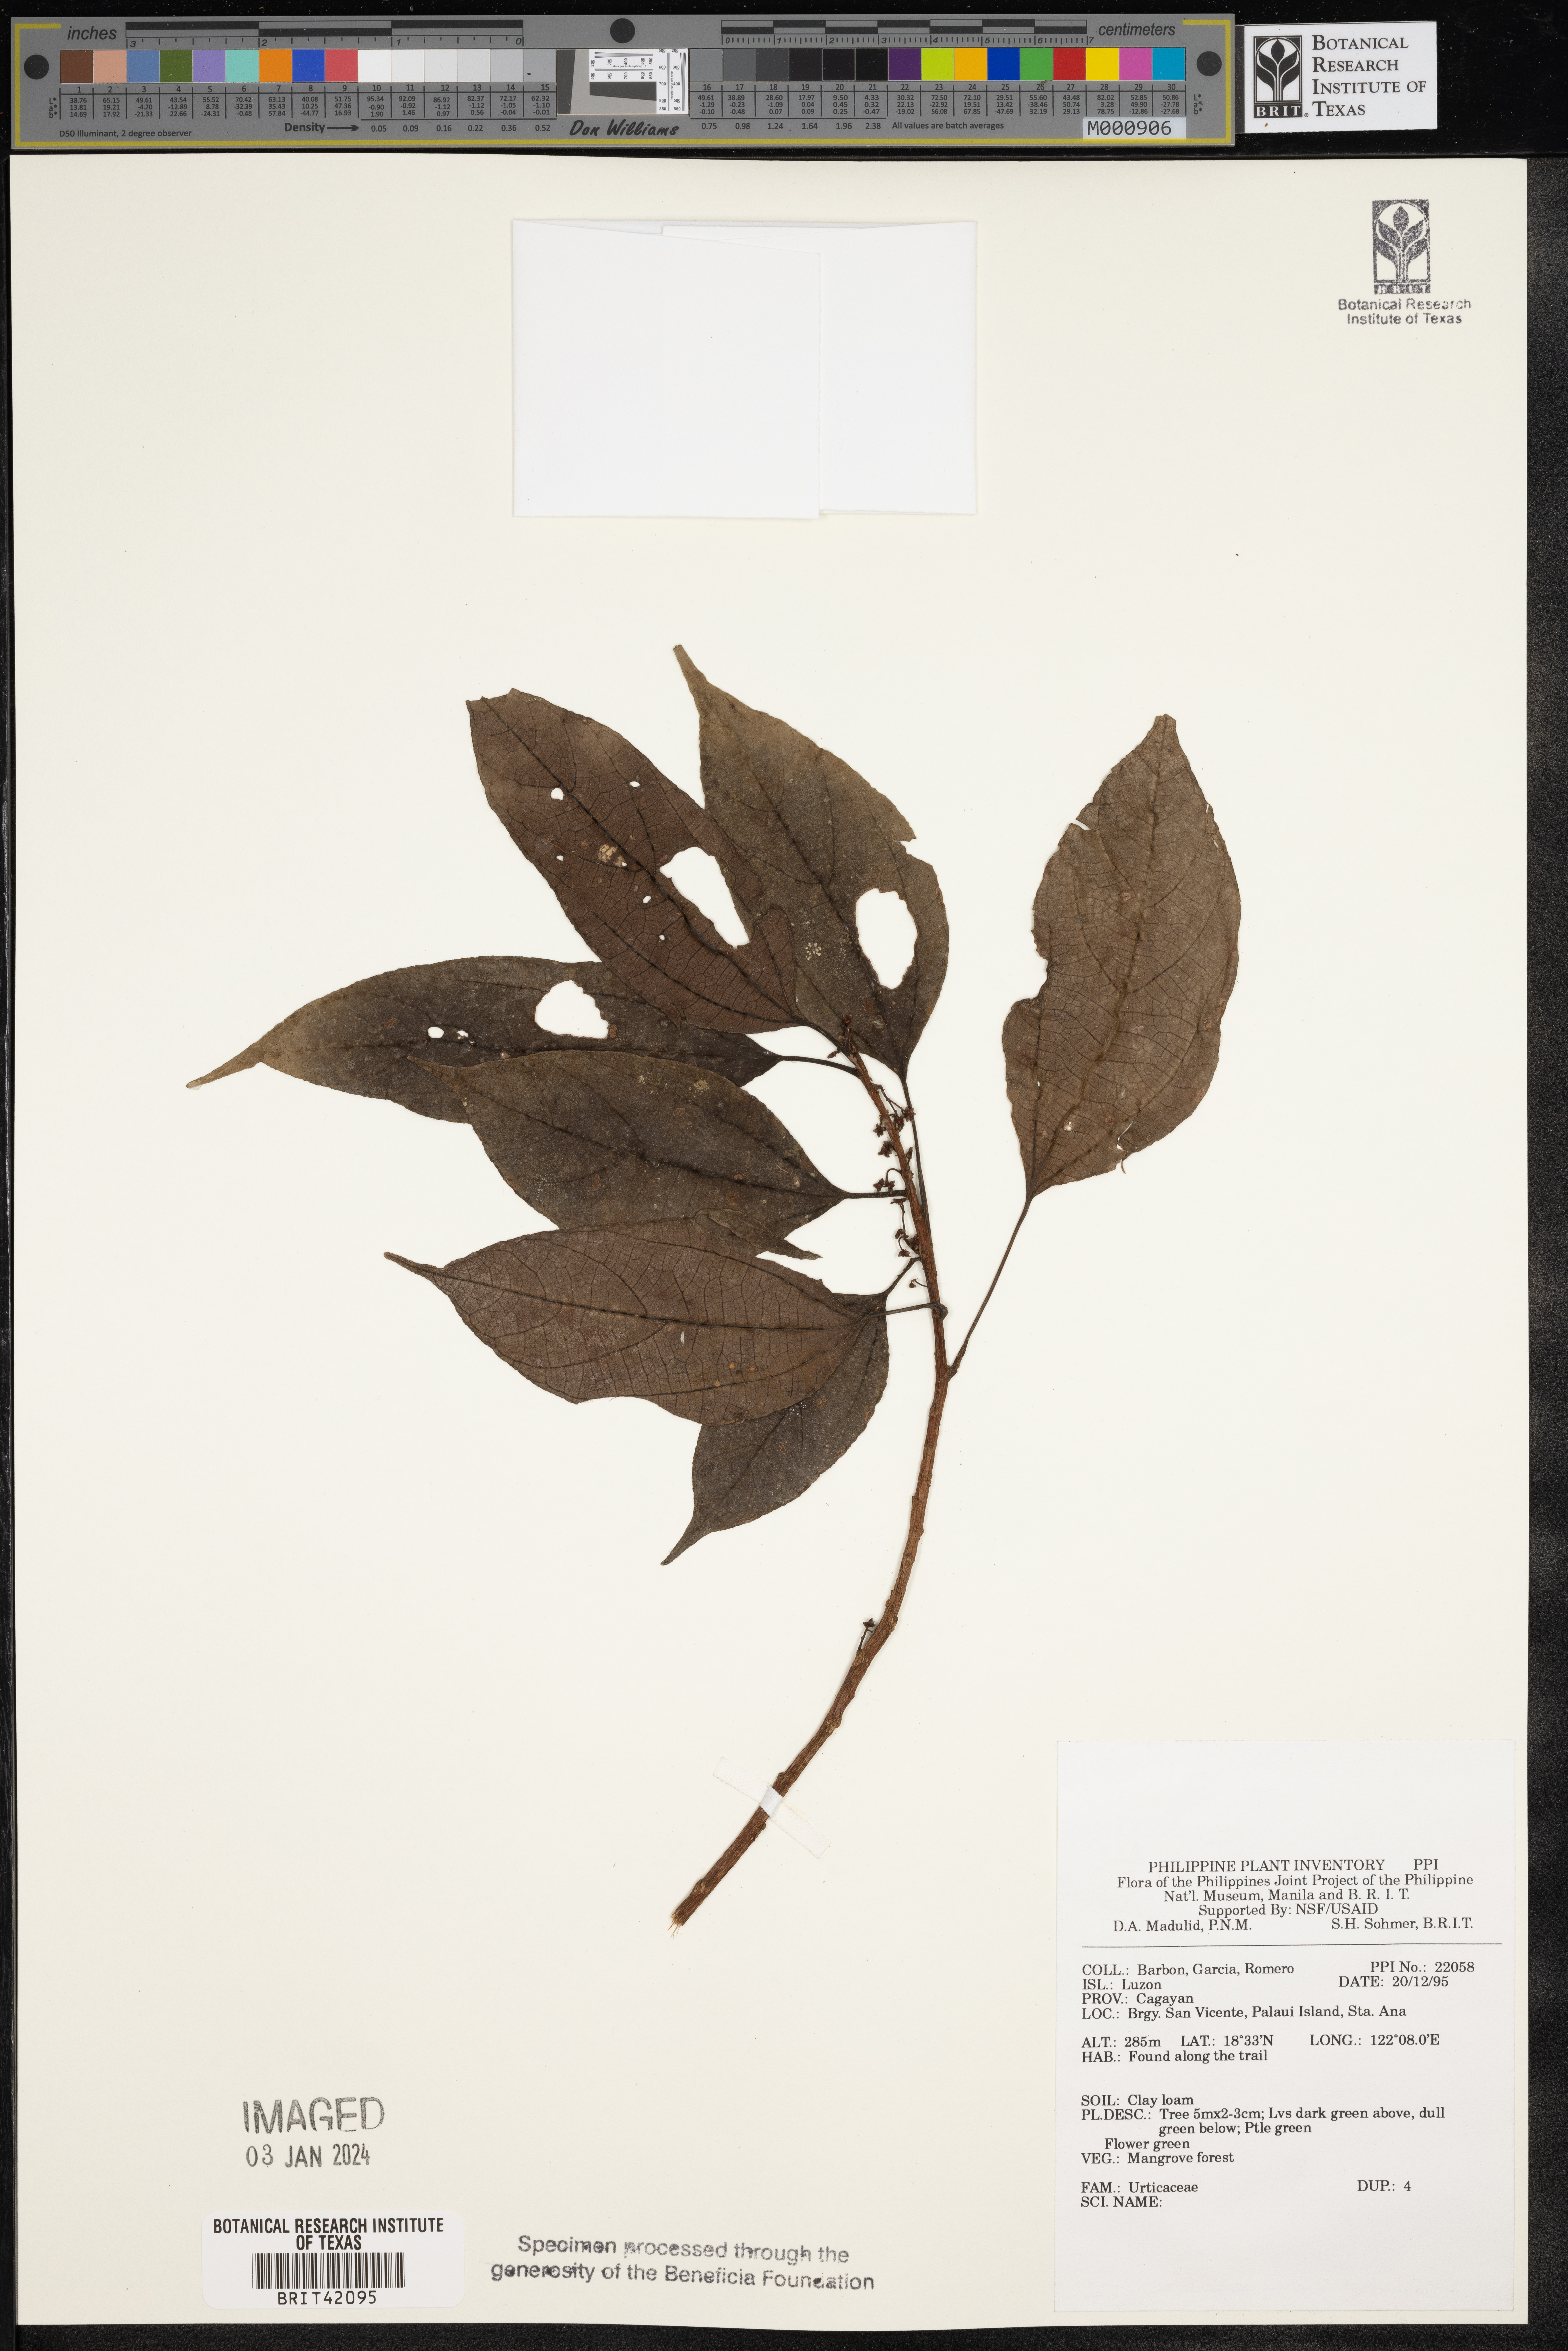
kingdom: Plantae
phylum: Tracheophyta
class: Magnoliopsida
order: Rosales
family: Urticaceae
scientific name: Urticaceae
